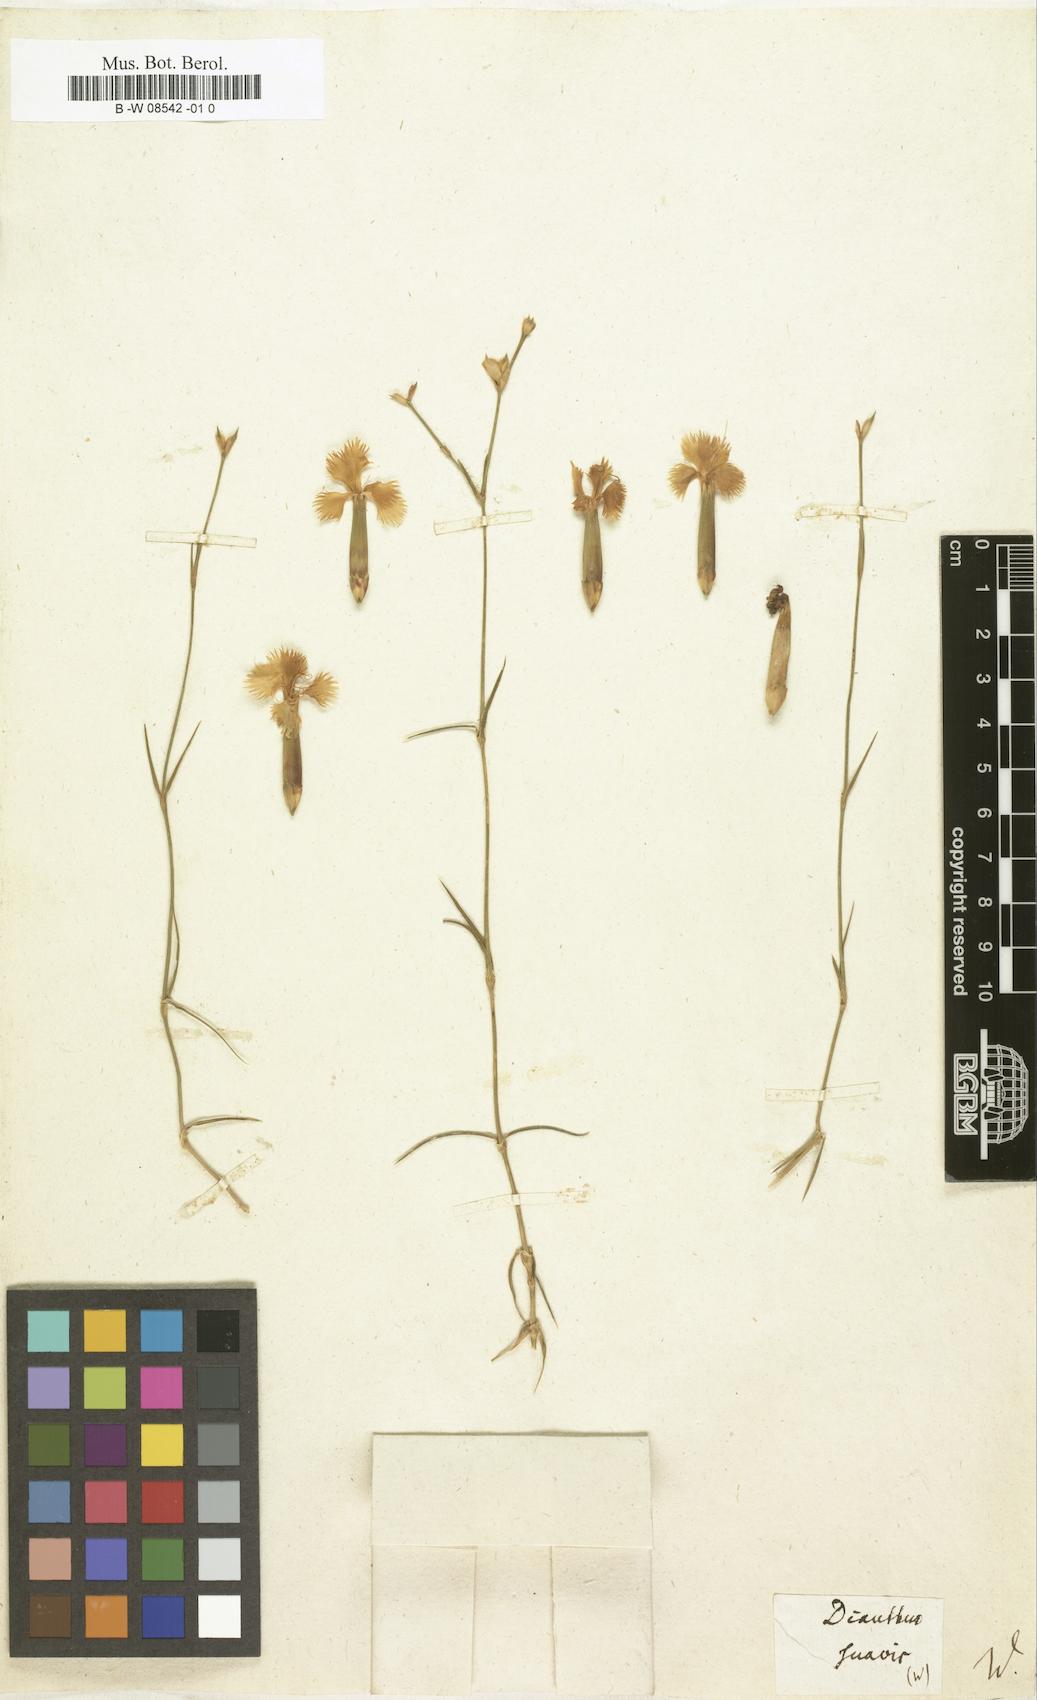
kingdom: Plantae
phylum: Tracheophyta
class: Magnoliopsida
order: Caryophyllales
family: Caryophyllaceae
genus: Dianthus
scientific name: Dianthus gratianopolitanus
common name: Cheddar pink
